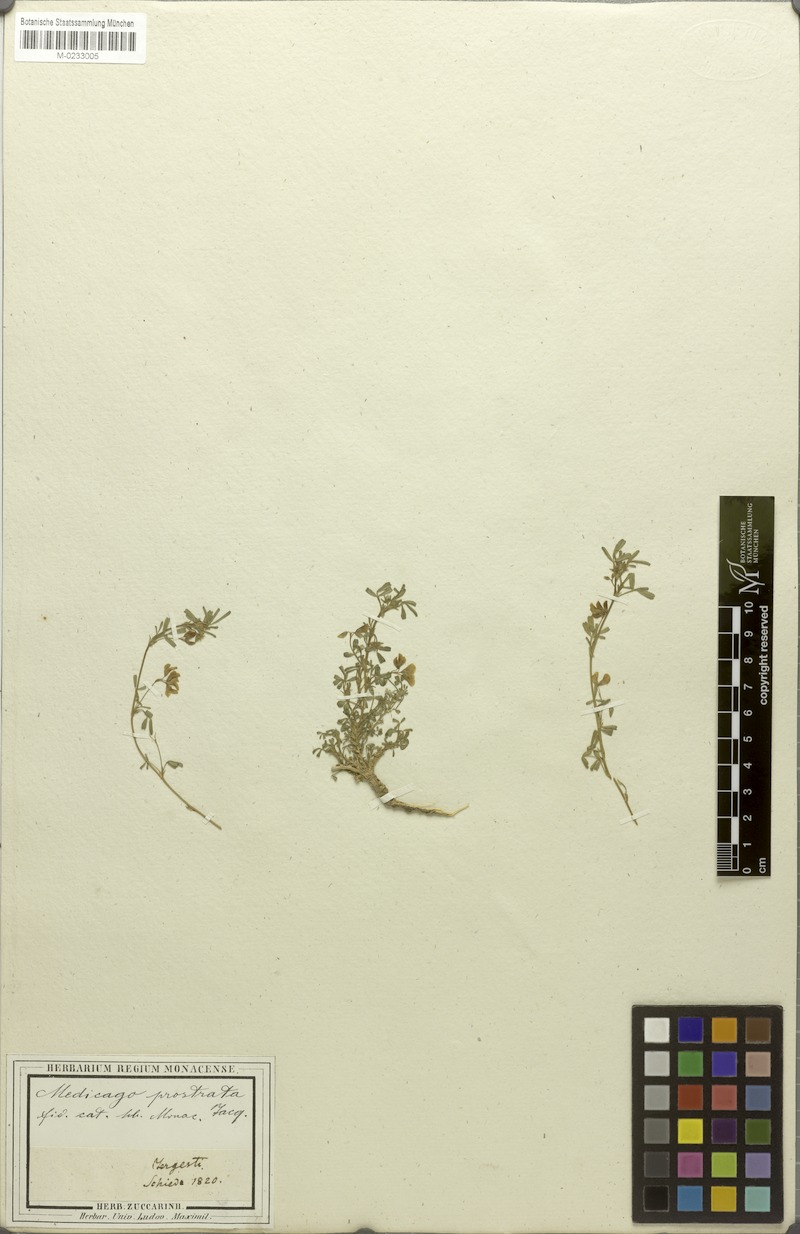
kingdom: Plantae
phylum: Tracheophyta
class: Magnoliopsida
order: Fabales
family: Fabaceae
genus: Medicago
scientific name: Medicago prostrata
